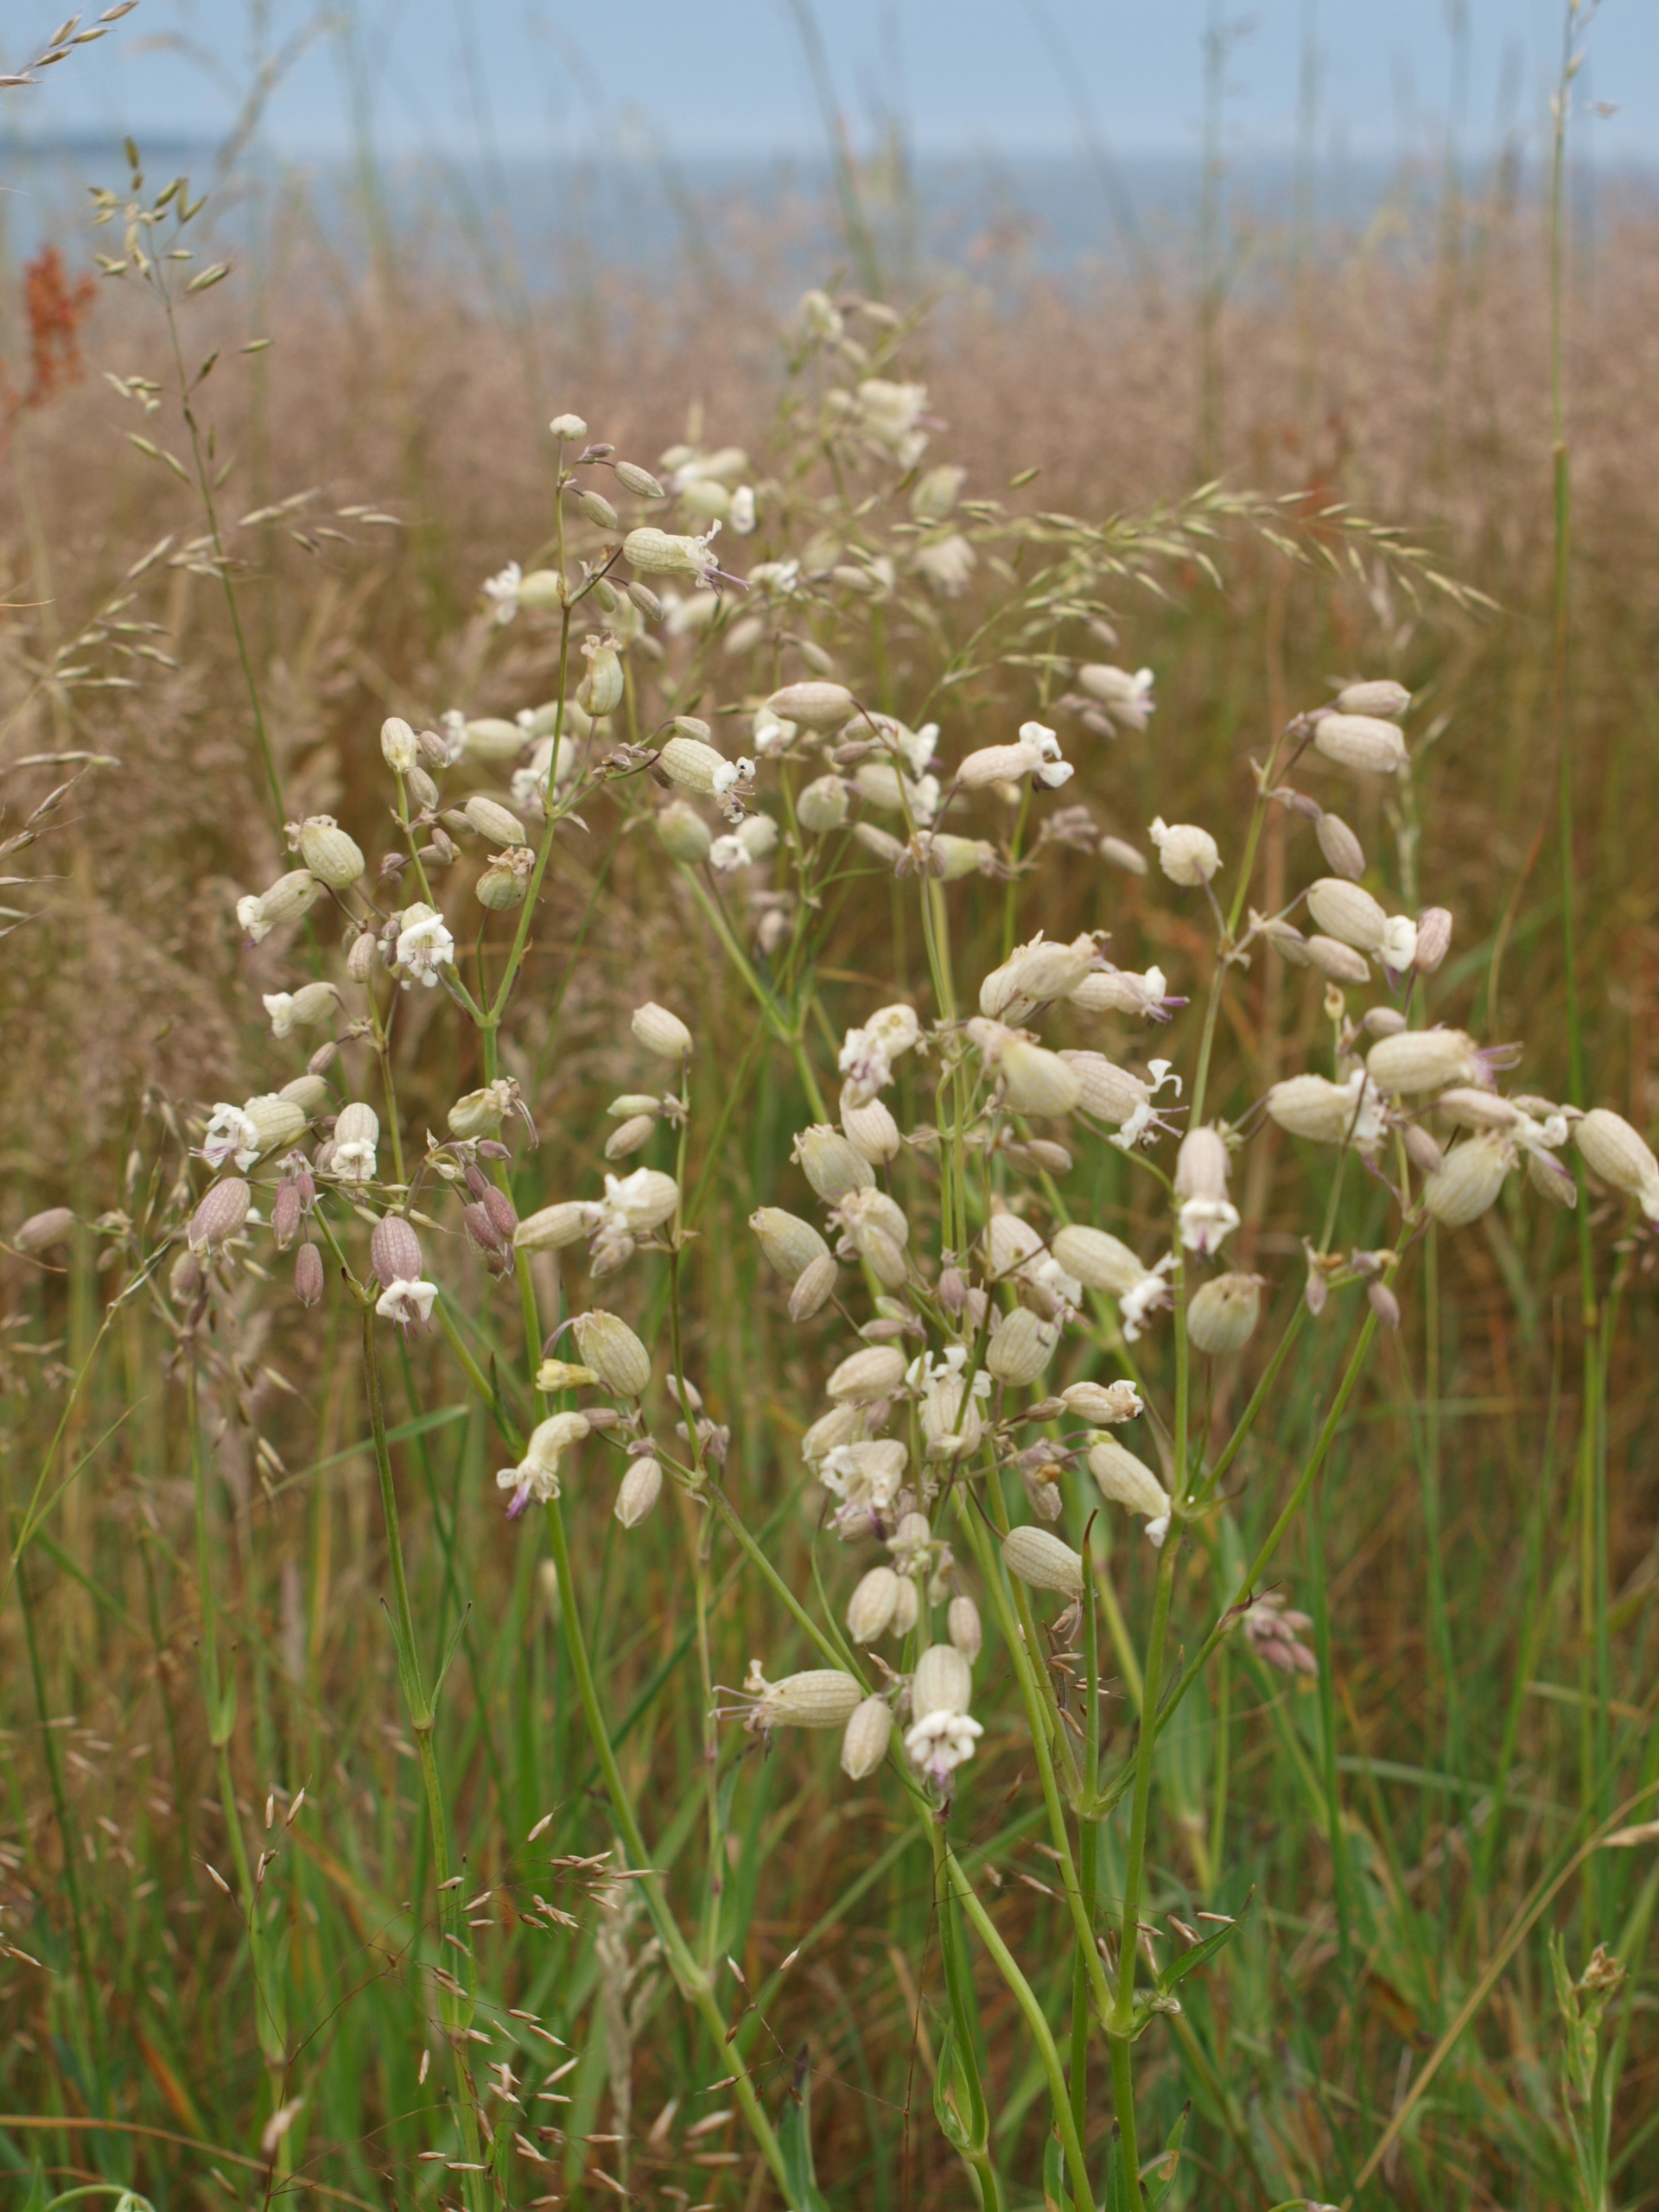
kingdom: Plantae
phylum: Tracheophyta
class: Magnoliopsida
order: Caryophyllales
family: Caryophyllaceae
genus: Silene
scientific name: Silene vulgaris
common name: Blæresmælde
